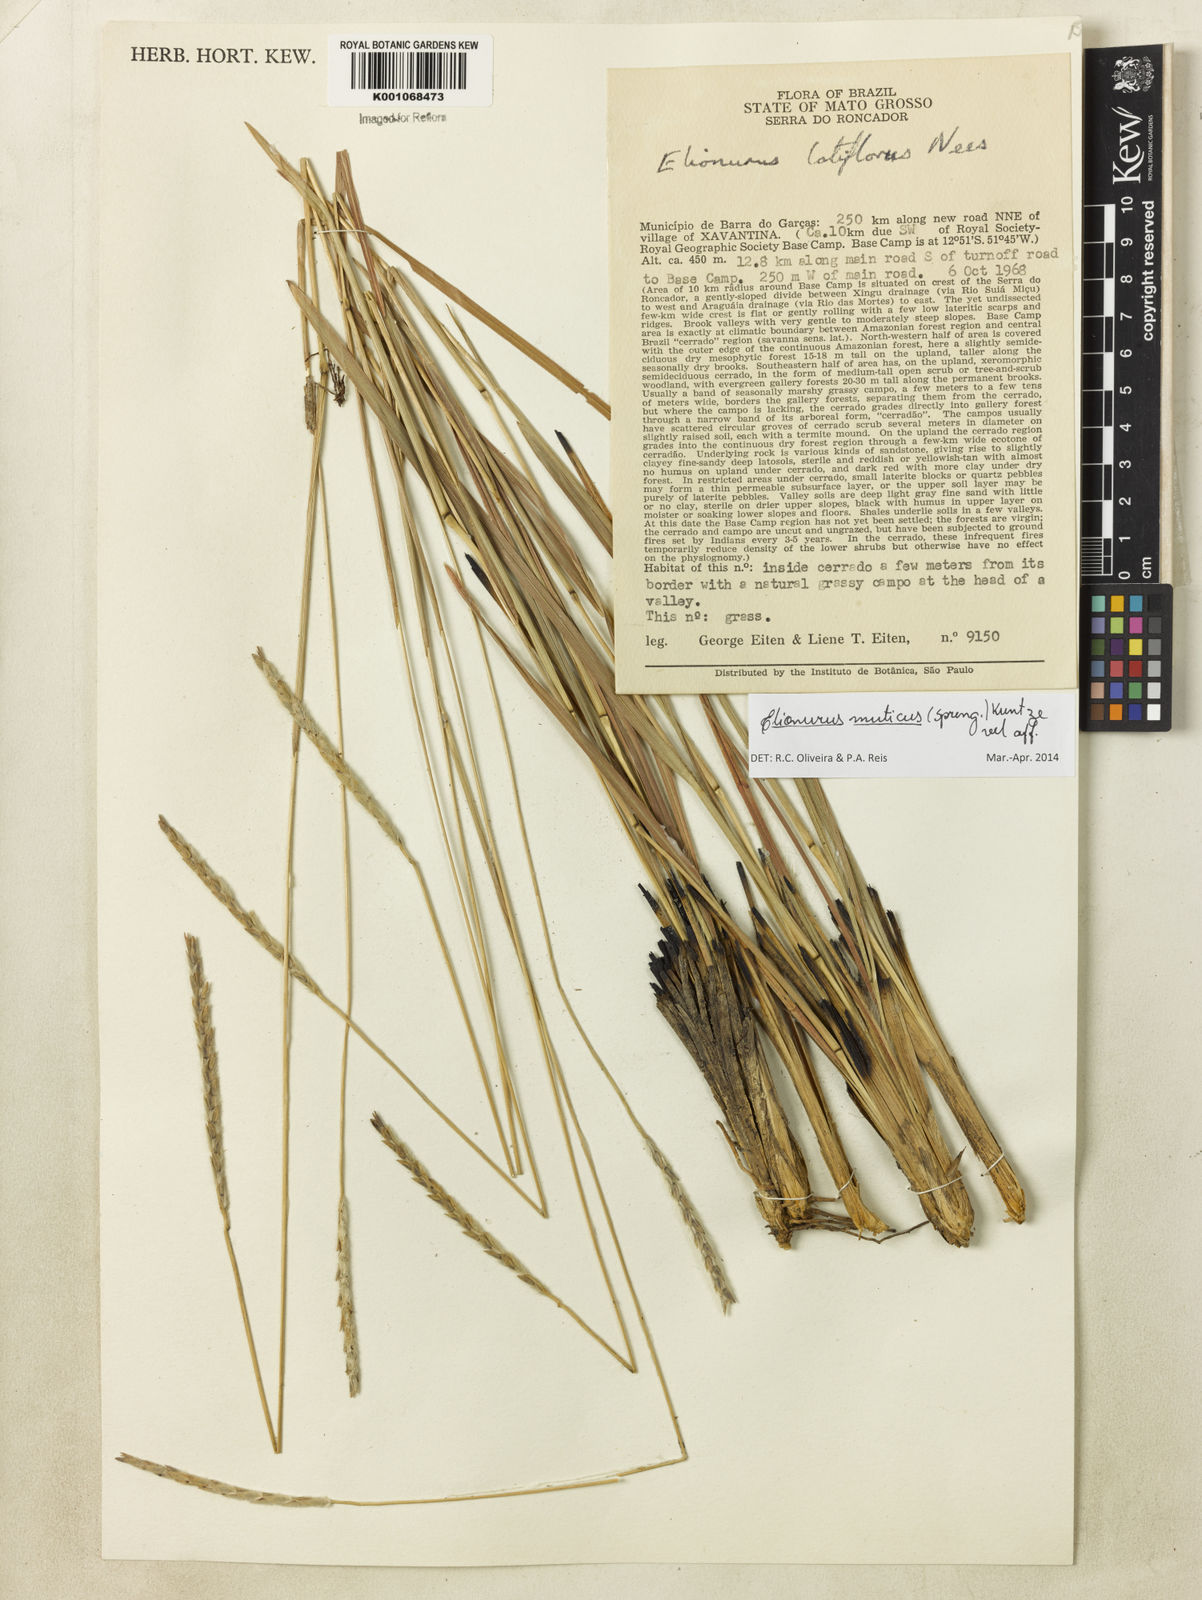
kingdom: Plantae
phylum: Tracheophyta
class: Liliopsida
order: Poales
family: Poaceae
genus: Elionurus
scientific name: Elionurus muticus
